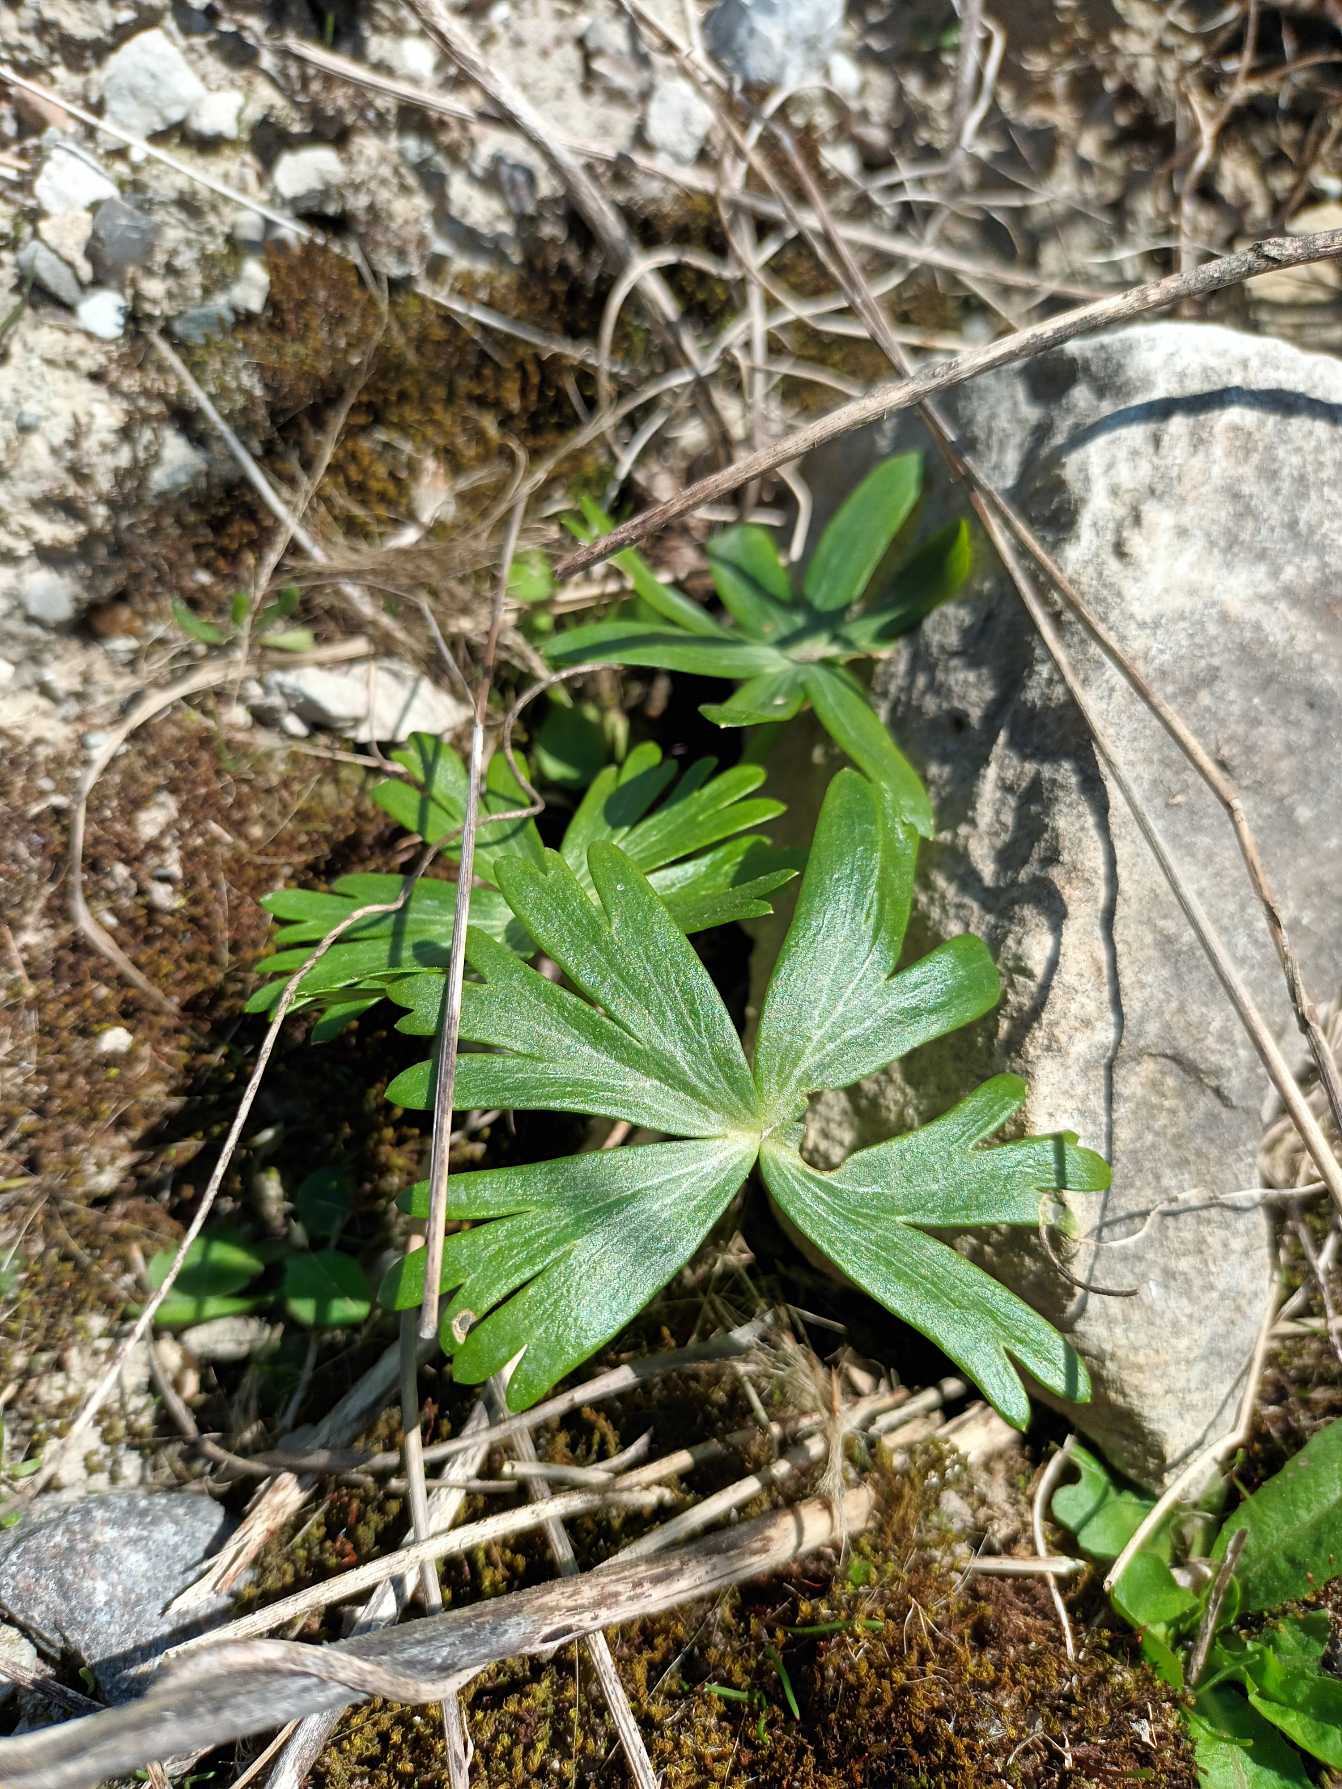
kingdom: Plantae
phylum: Tracheophyta
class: Magnoliopsida
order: Ranunculales
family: Ranunculaceae
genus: Eranthis
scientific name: Eranthis hyemalis
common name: Erantis
